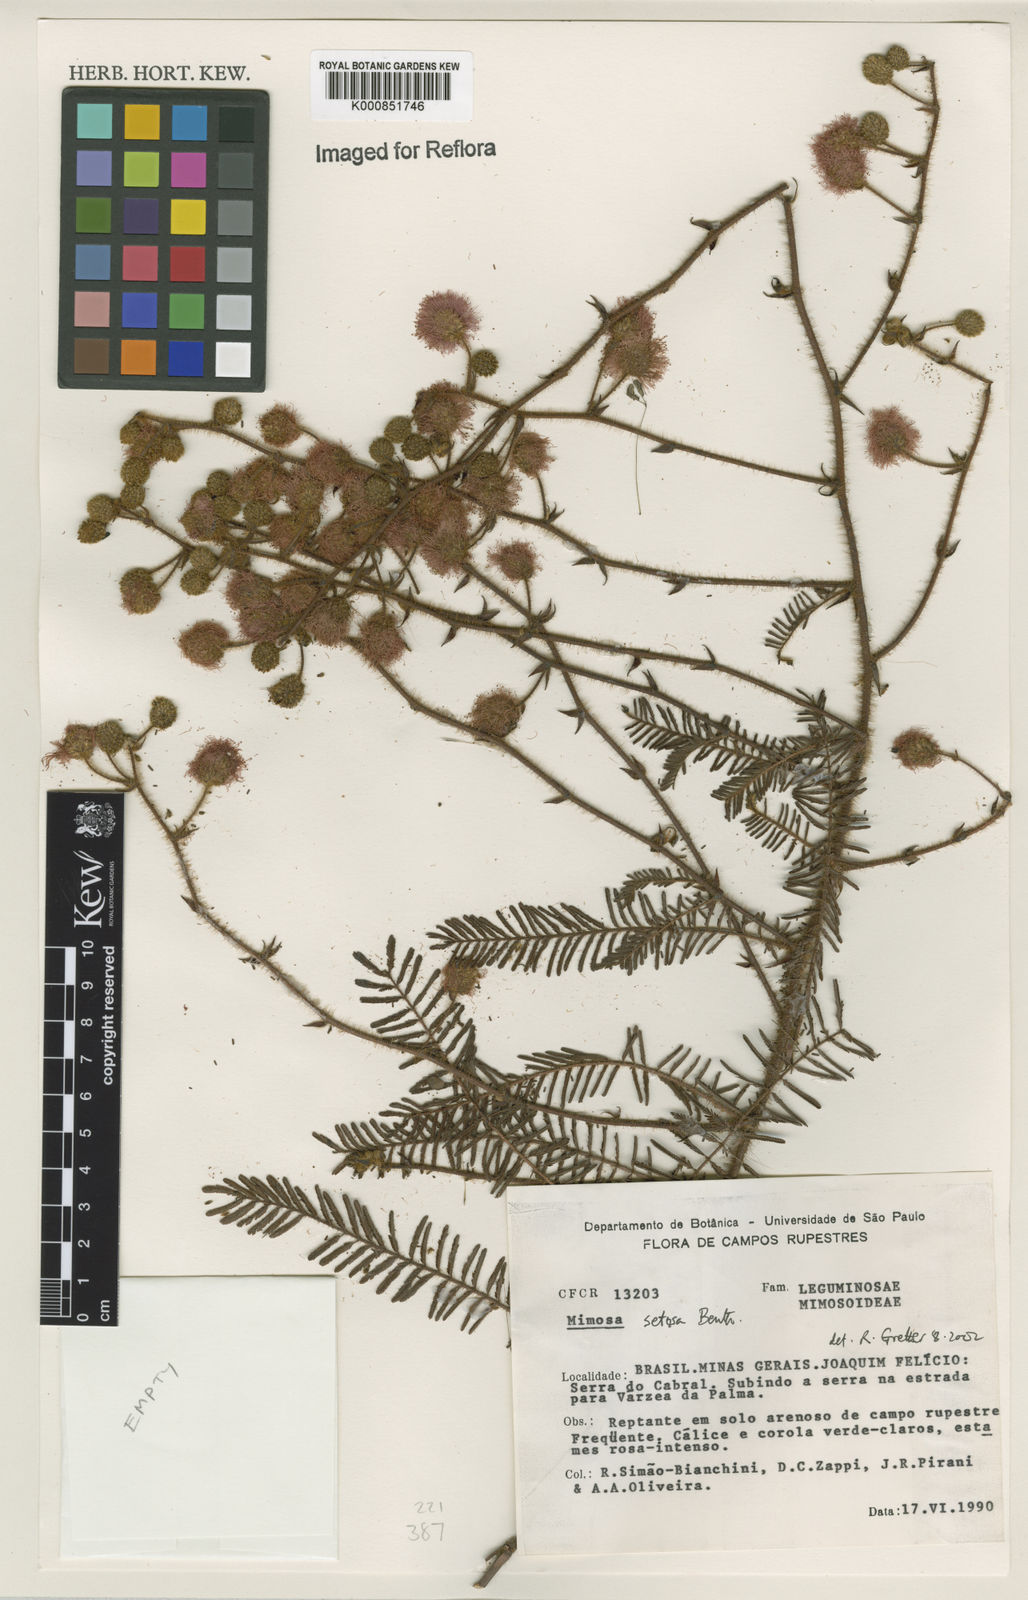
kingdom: Plantae
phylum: Tracheophyta
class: Magnoliopsida
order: Fabales
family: Fabaceae
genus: Mimosa
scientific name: Mimosa chiliomera
